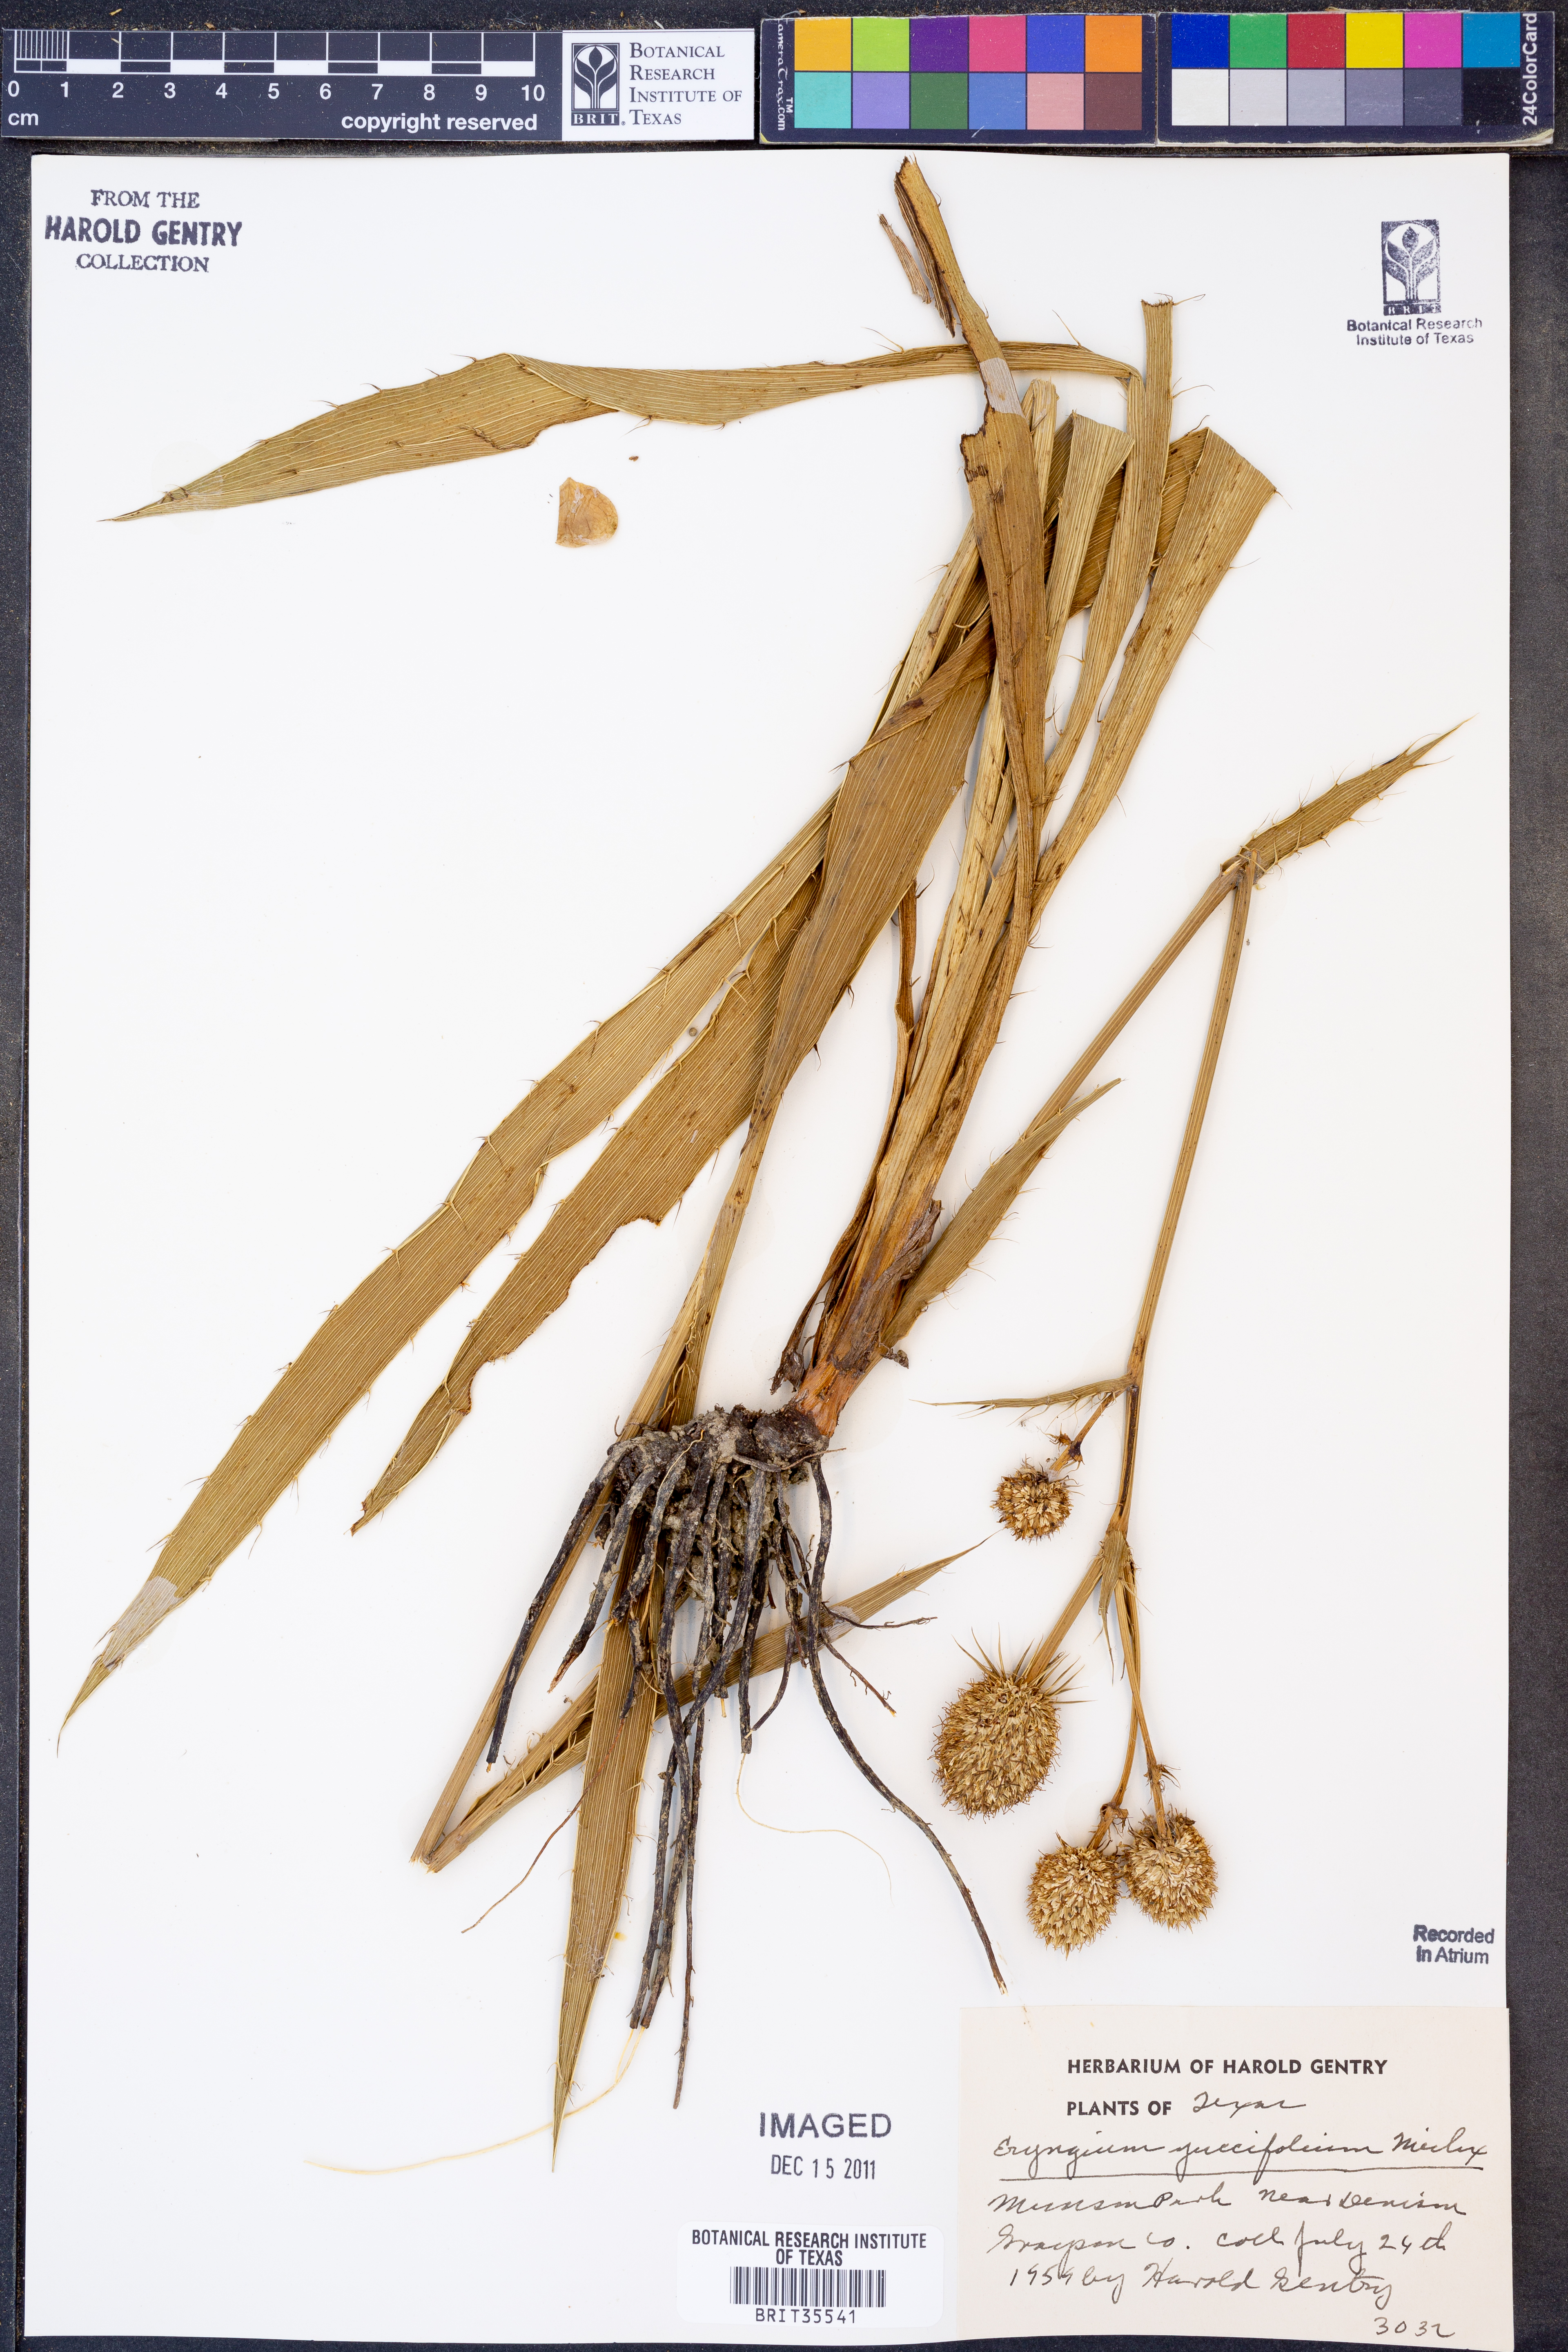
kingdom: Plantae
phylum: Tracheophyta
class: Magnoliopsida
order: Apiales
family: Apiaceae
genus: Eryngium
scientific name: Eryngium yuccifolium
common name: Button eryngo
